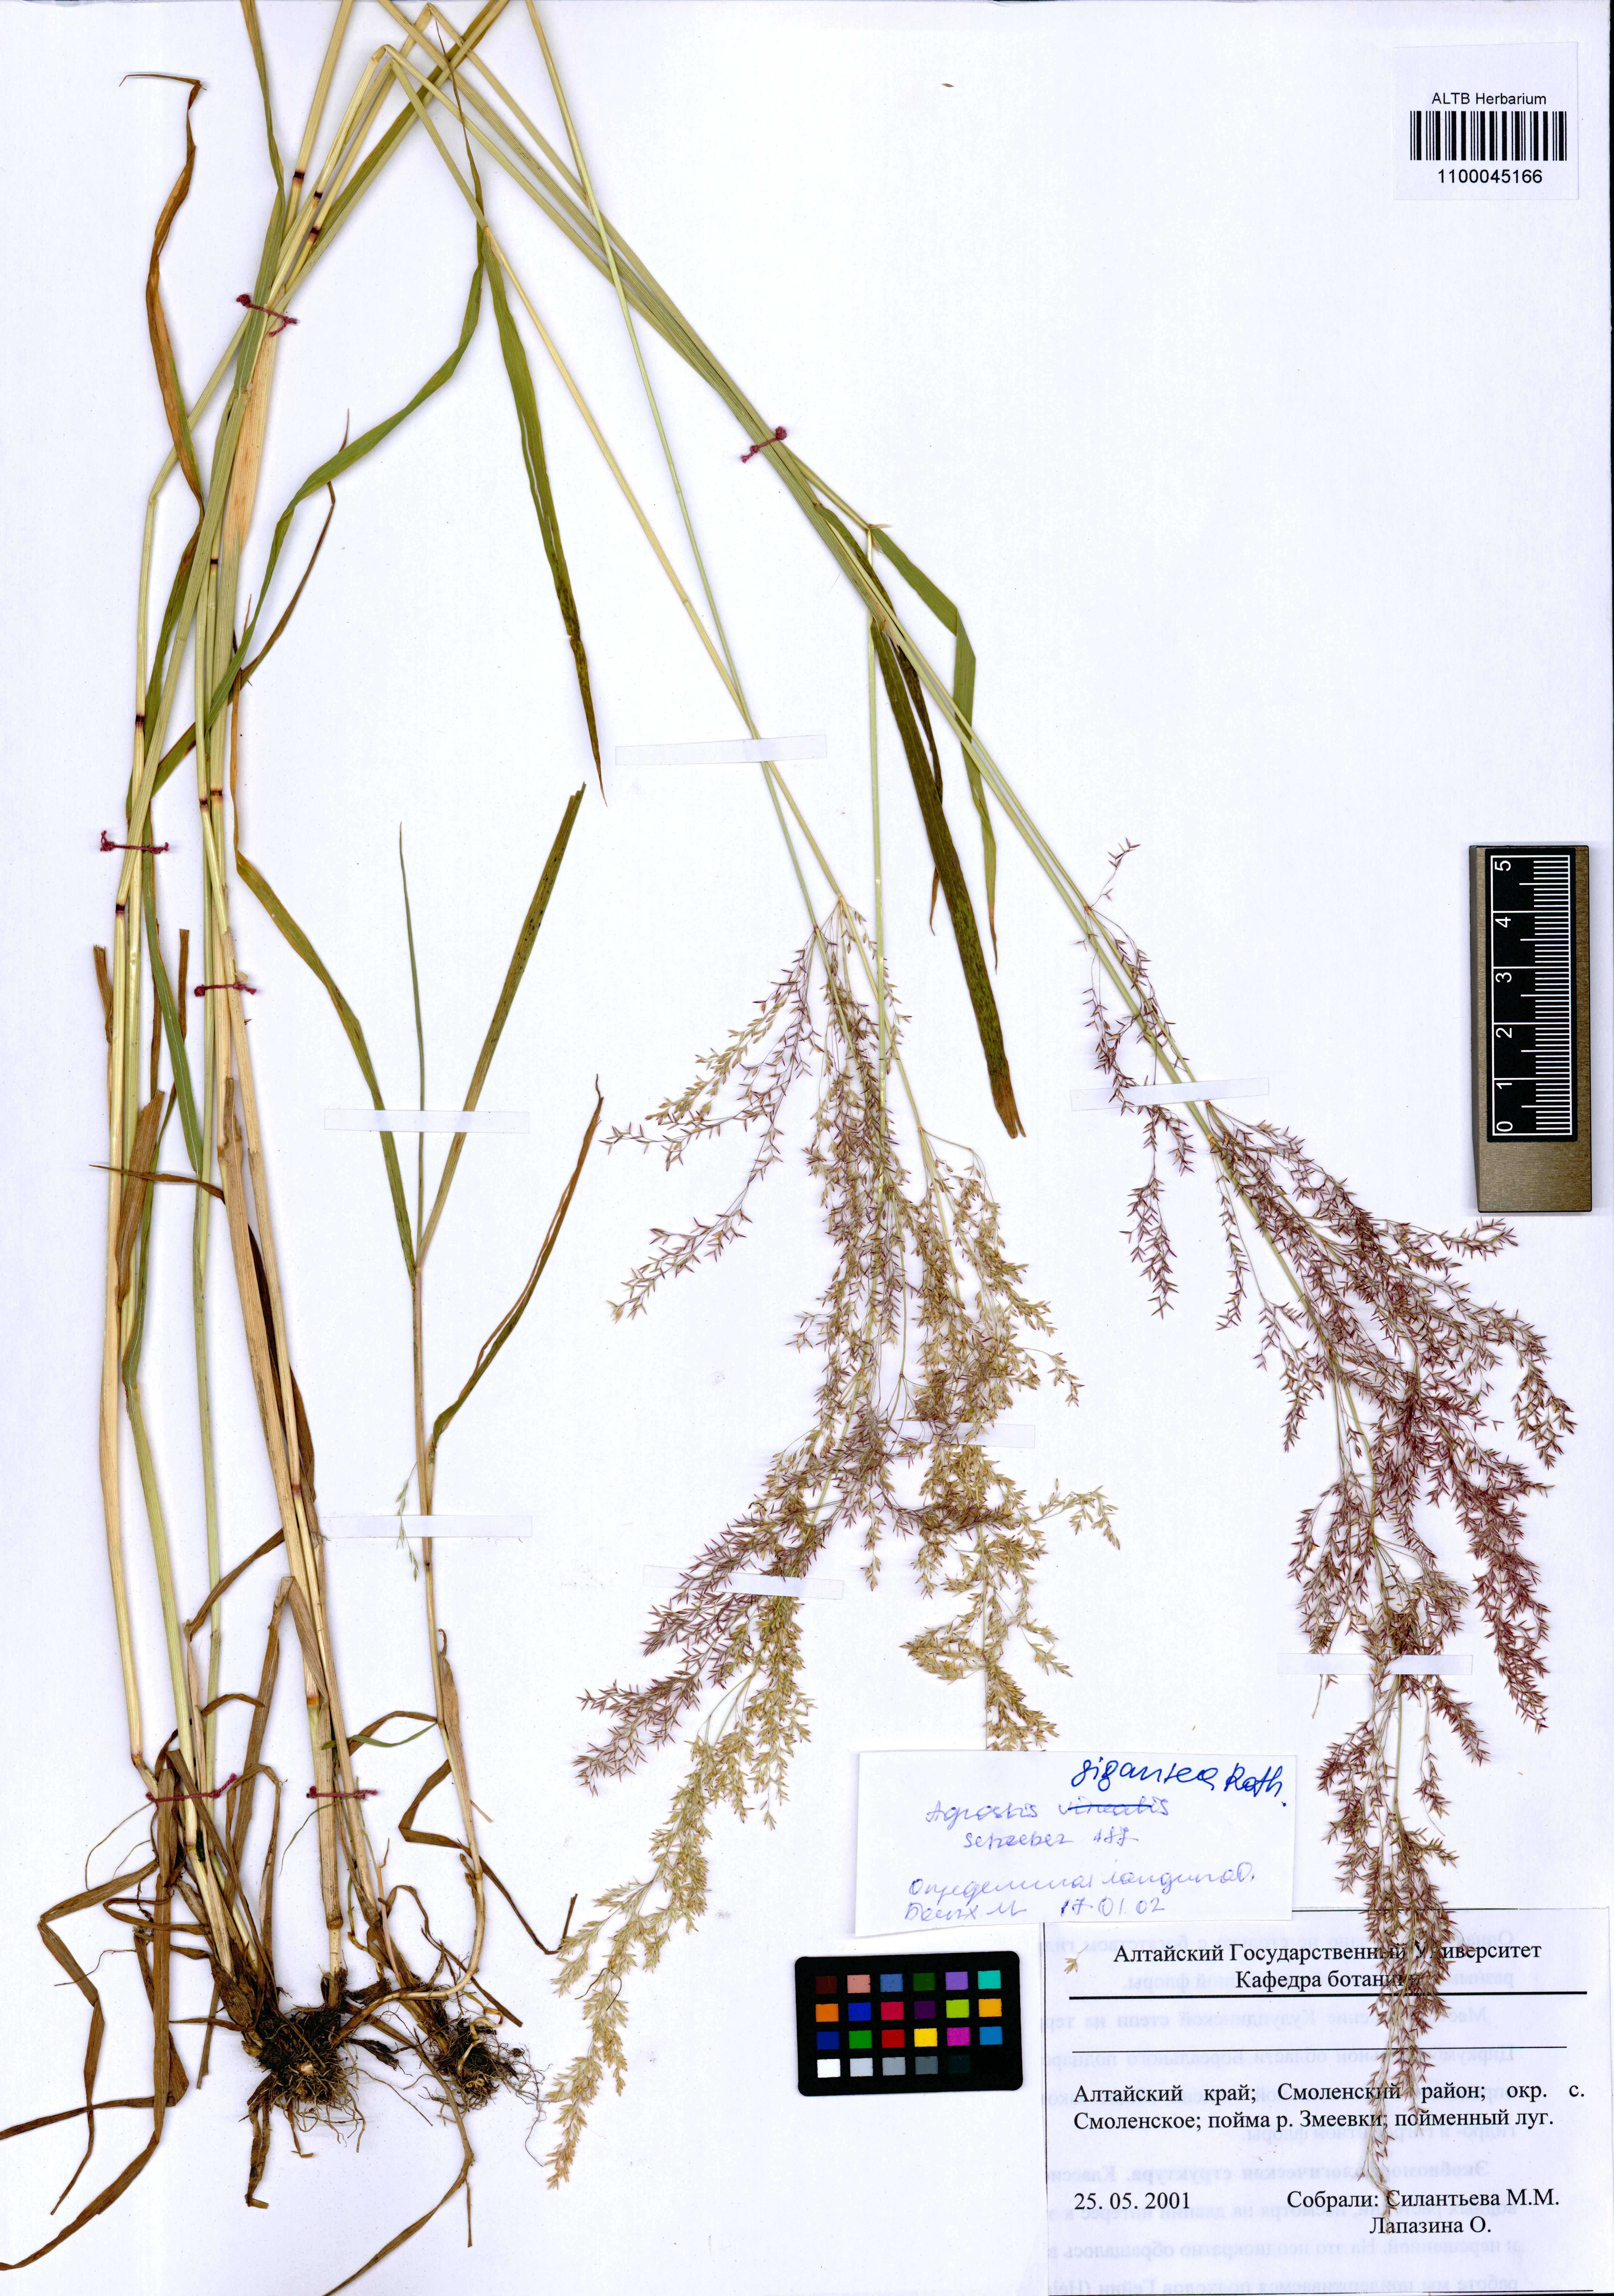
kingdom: Plantae
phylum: Tracheophyta
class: Liliopsida
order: Poales
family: Poaceae
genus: Agrostis
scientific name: Agrostis gigantea
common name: Black bent
